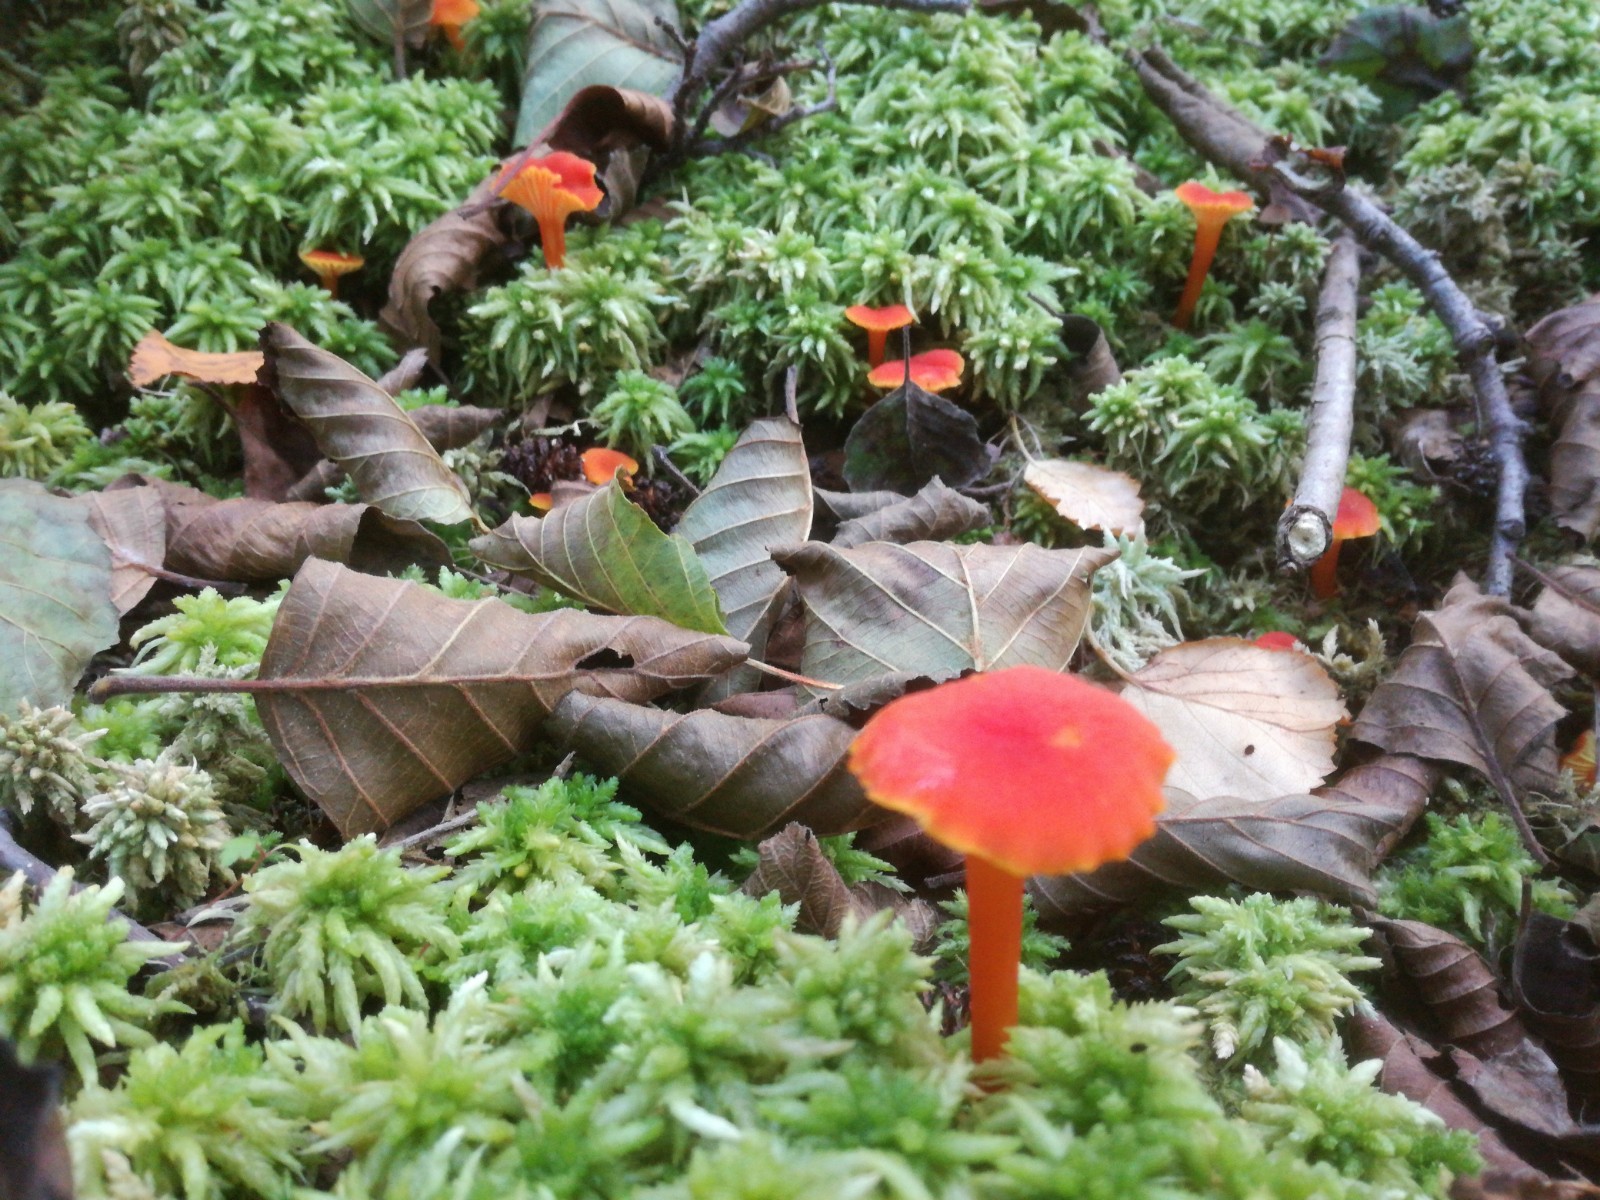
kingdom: Fungi
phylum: Basidiomycota
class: Agaricomycetes
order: Agaricales
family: Hygrophoraceae
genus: Hygrocybe
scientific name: Hygrocybe cantharellus
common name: kantarel-vokshat
